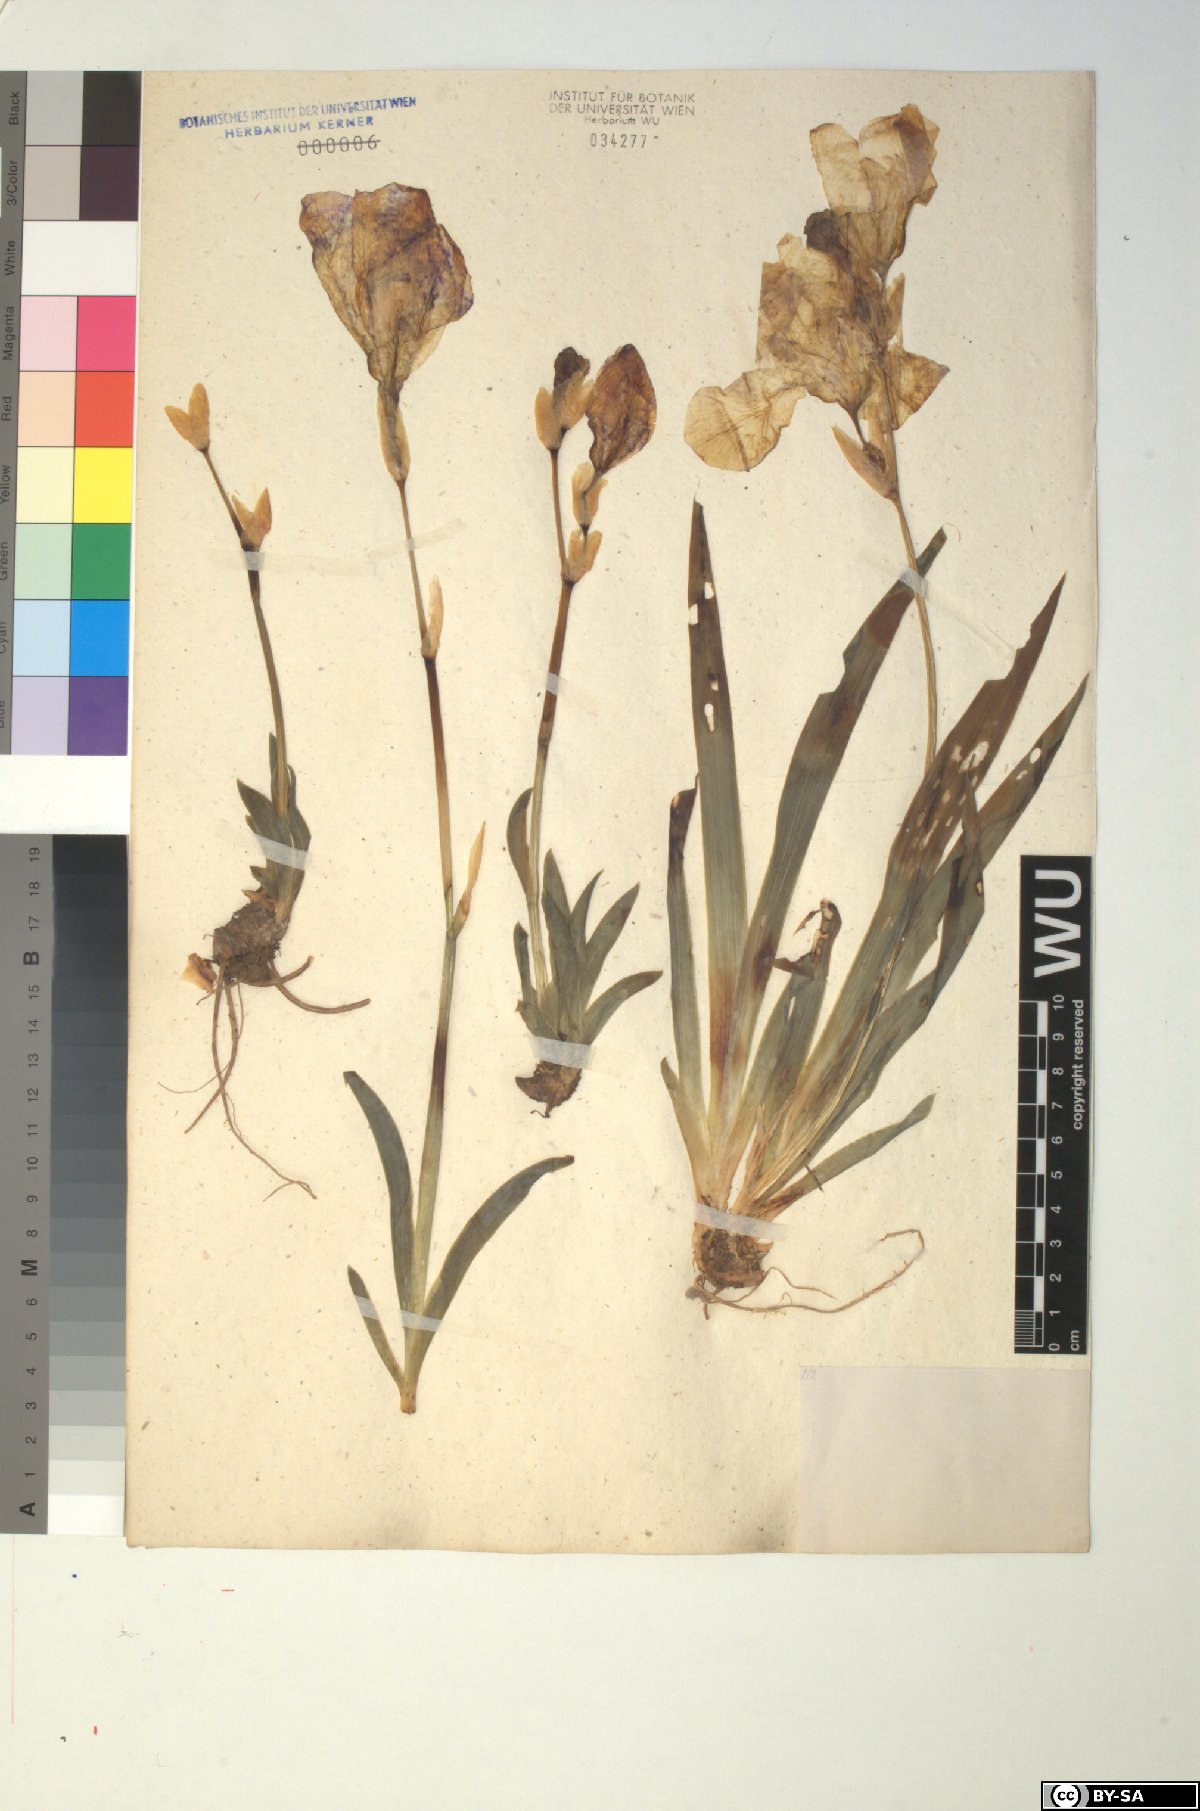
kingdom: Plantae
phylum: Tracheophyta
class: Liliopsida
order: Asparagales
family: Iridaceae
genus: Iris
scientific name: Iris pallida
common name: Sweet iris
